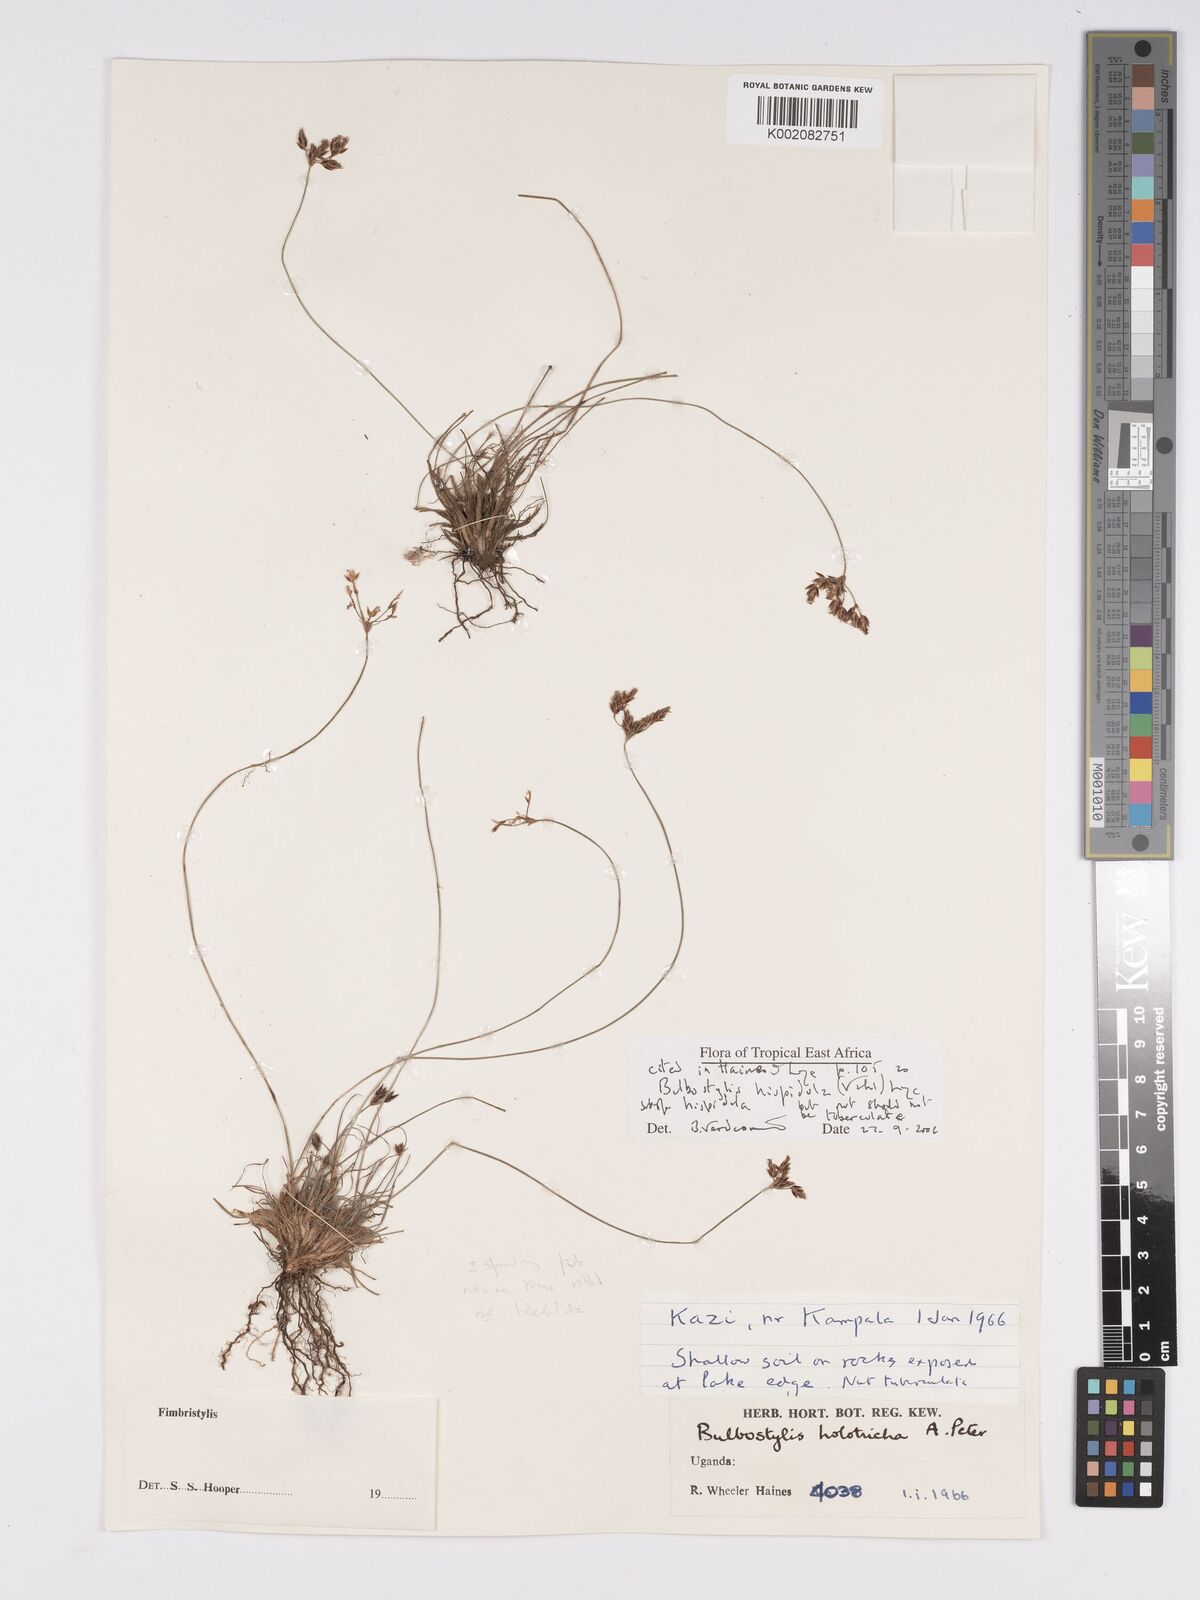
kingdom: Plantae
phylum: Tracheophyta
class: Liliopsida
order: Poales
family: Cyperaceae
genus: Bulbostylis
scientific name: Bulbostylis hispidula
